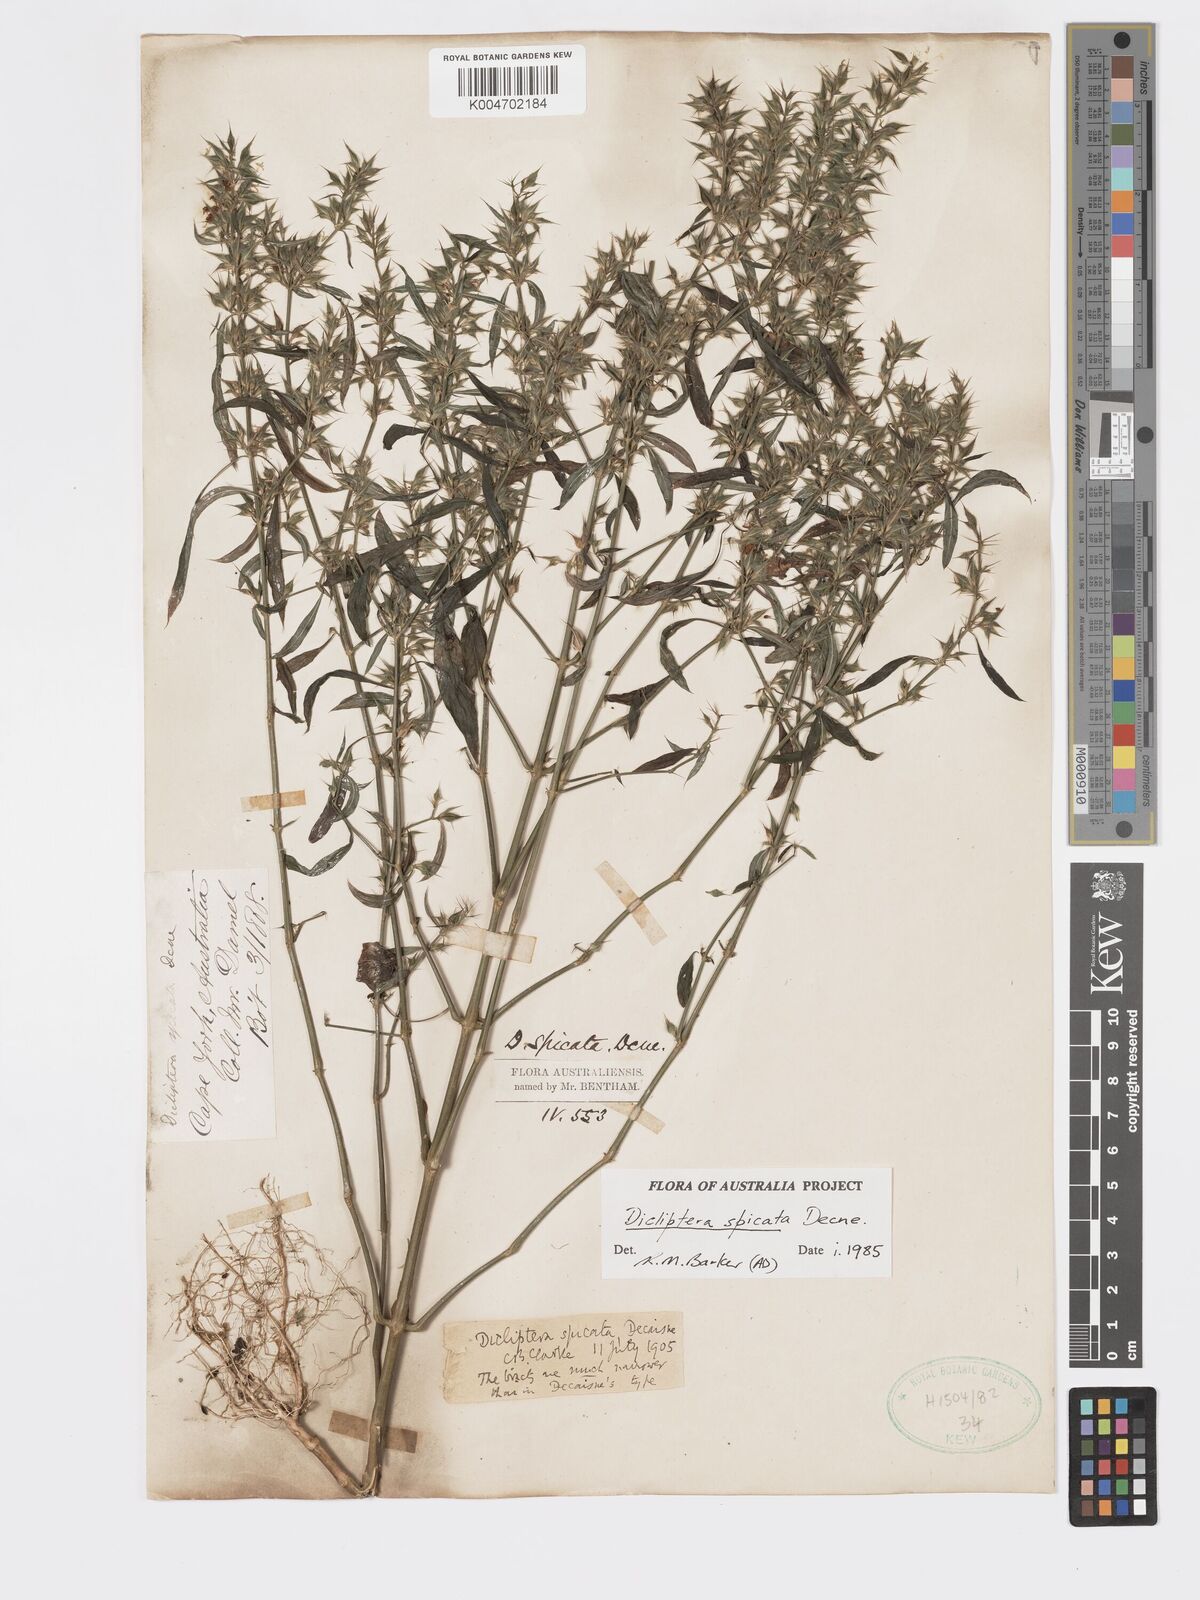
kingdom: Plantae
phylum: Tracheophyta
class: Magnoliopsida
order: Lamiales
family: Acanthaceae
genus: Dicliptera
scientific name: Dicliptera
